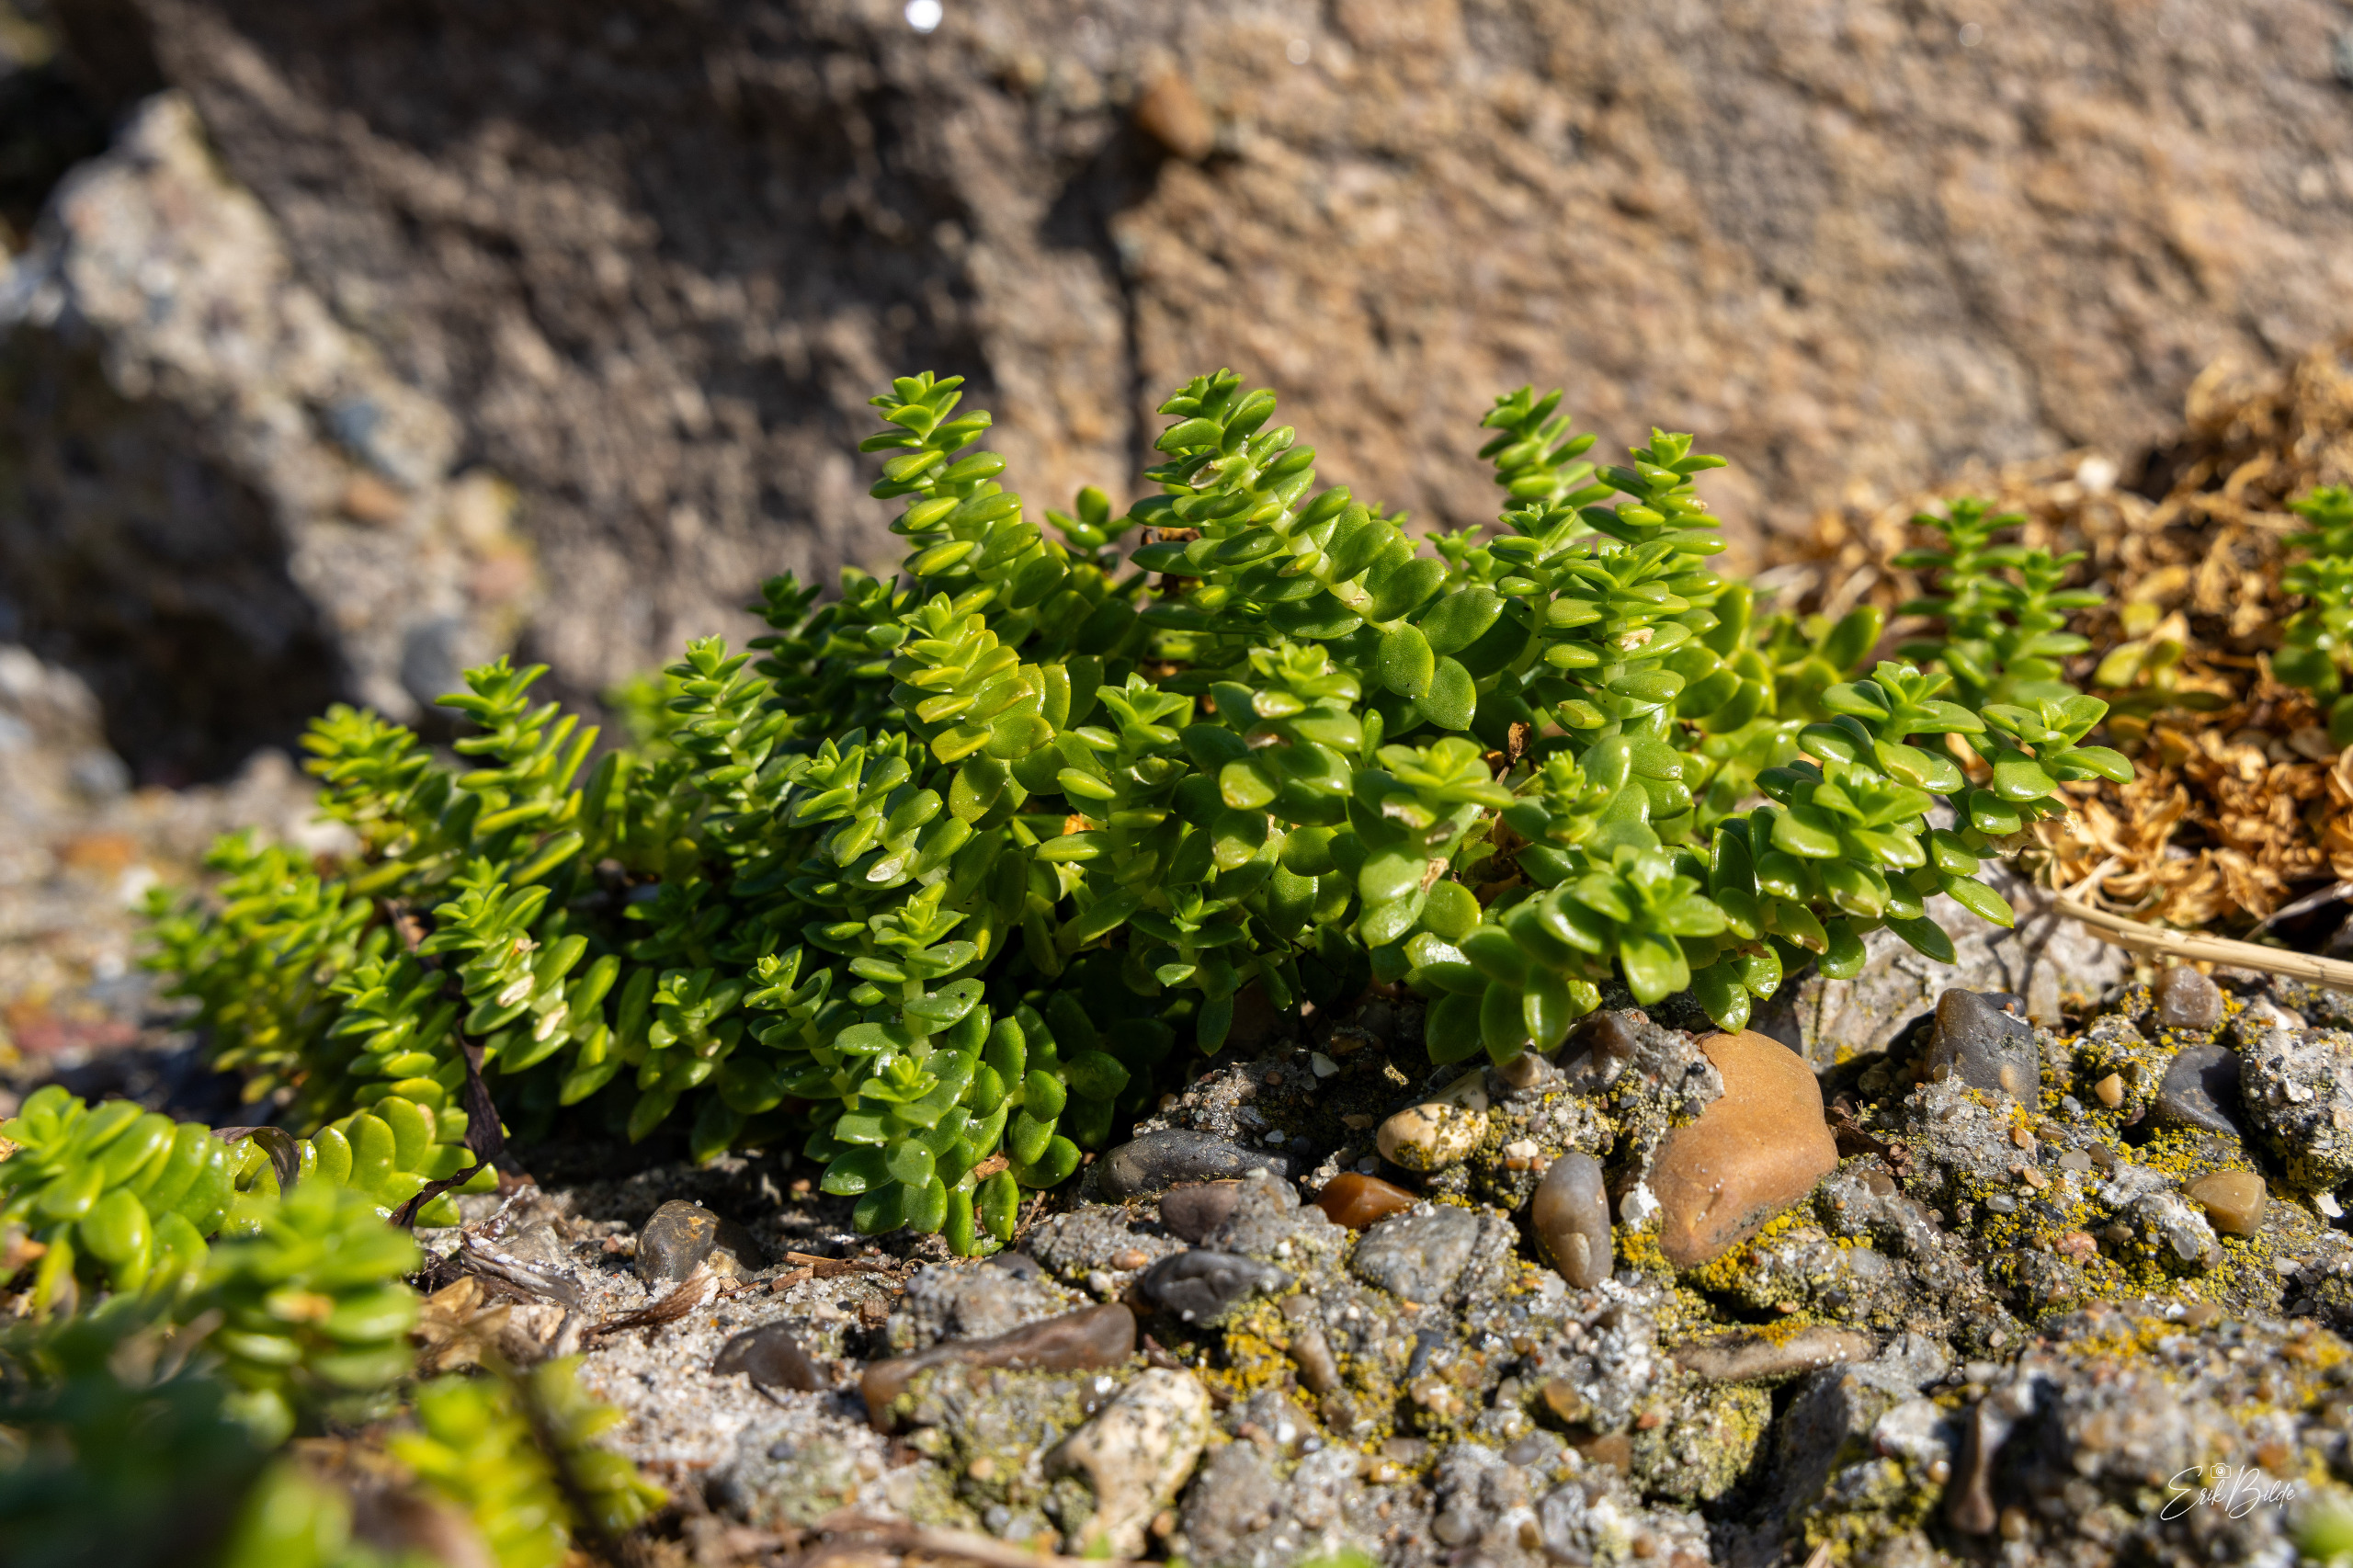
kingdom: Plantae
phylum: Tracheophyta
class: Magnoliopsida
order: Caryophyllales
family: Caryophyllaceae
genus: Honckenya
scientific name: Honckenya peploides
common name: Strandarve
